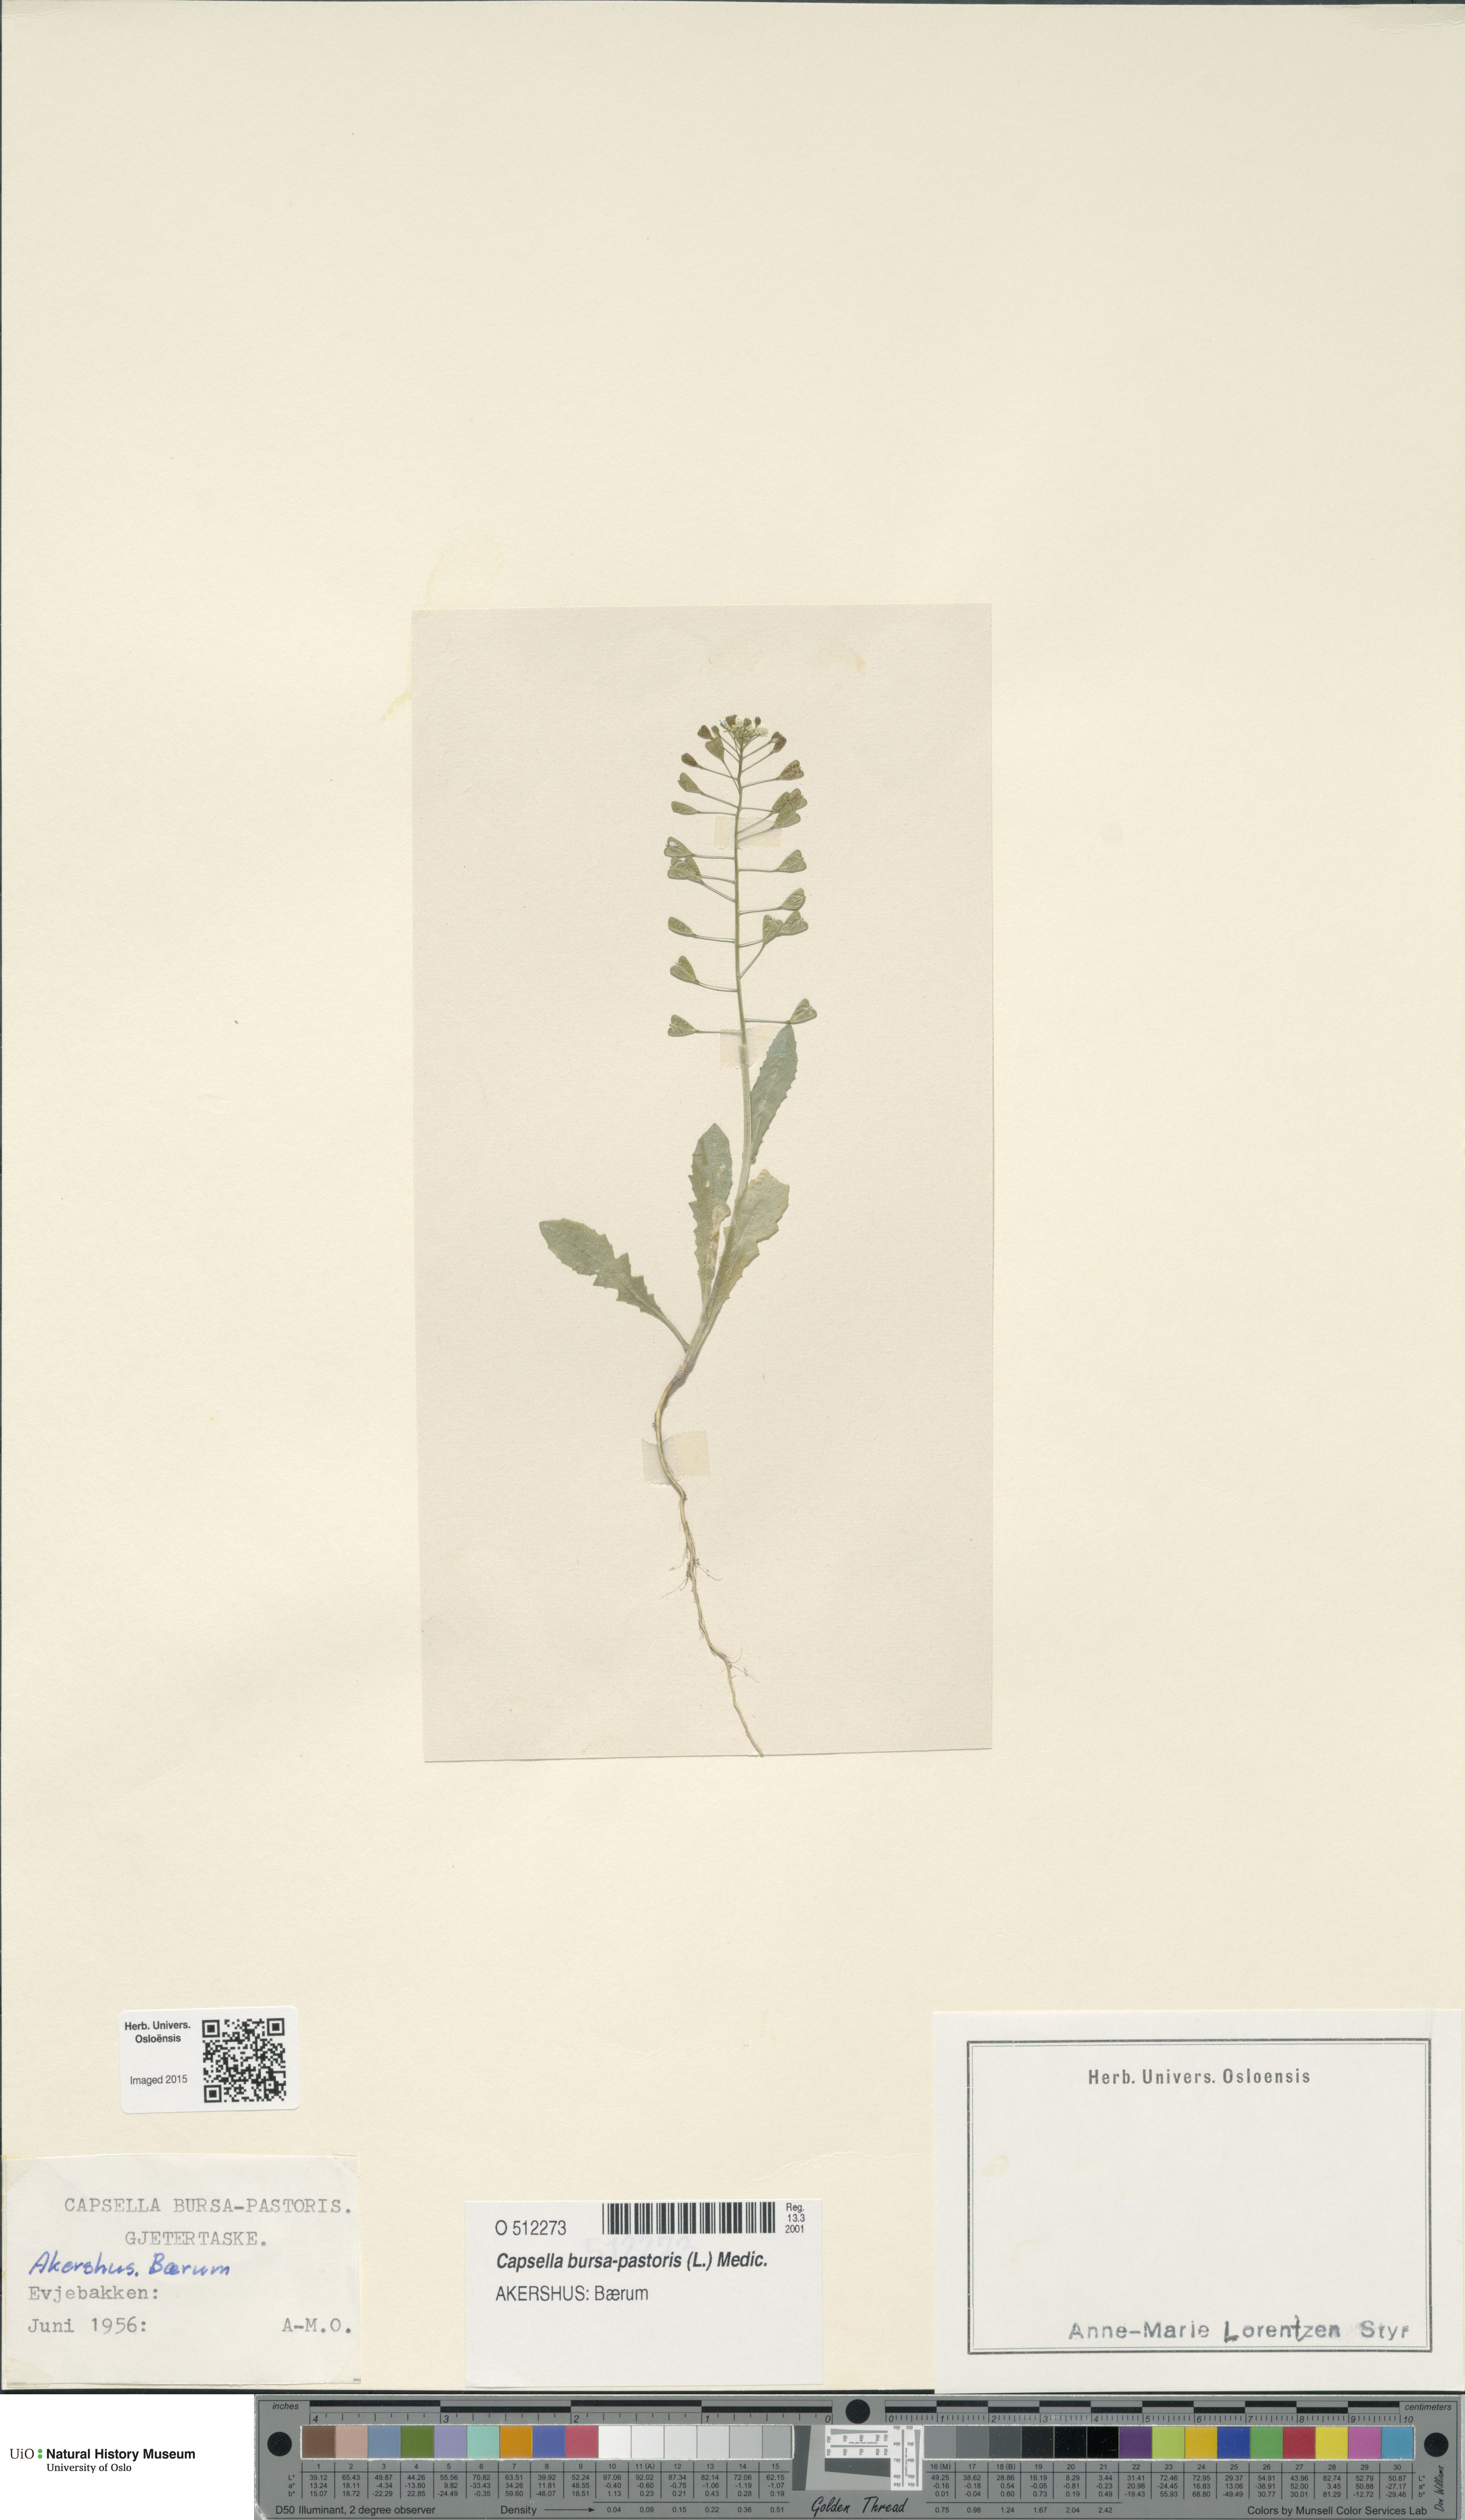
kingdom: Plantae
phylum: Tracheophyta
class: Magnoliopsida
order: Brassicales
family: Brassicaceae
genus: Capsella
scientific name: Capsella bursa-pastoris
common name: Shepherd's purse
